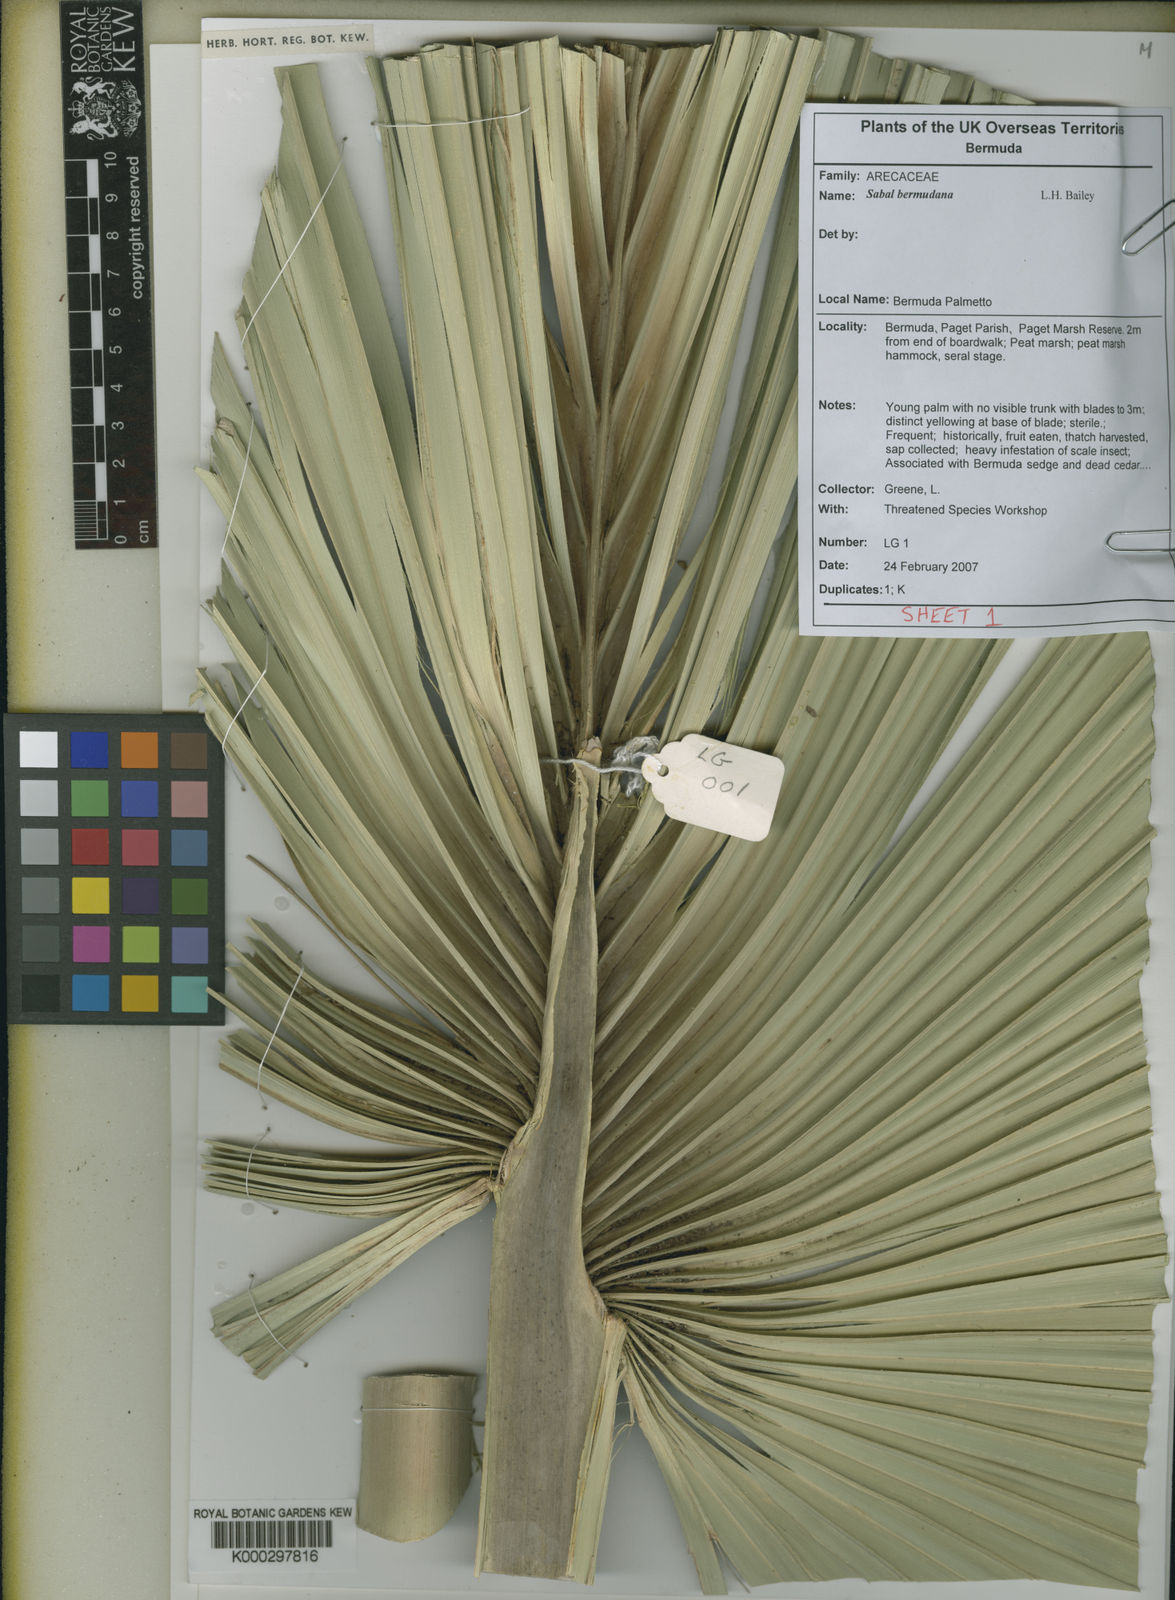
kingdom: Plantae
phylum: Tracheophyta
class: Liliopsida
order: Arecales
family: Arecaceae
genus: Sabal
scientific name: Sabal bermudana
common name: Bermuda palm
